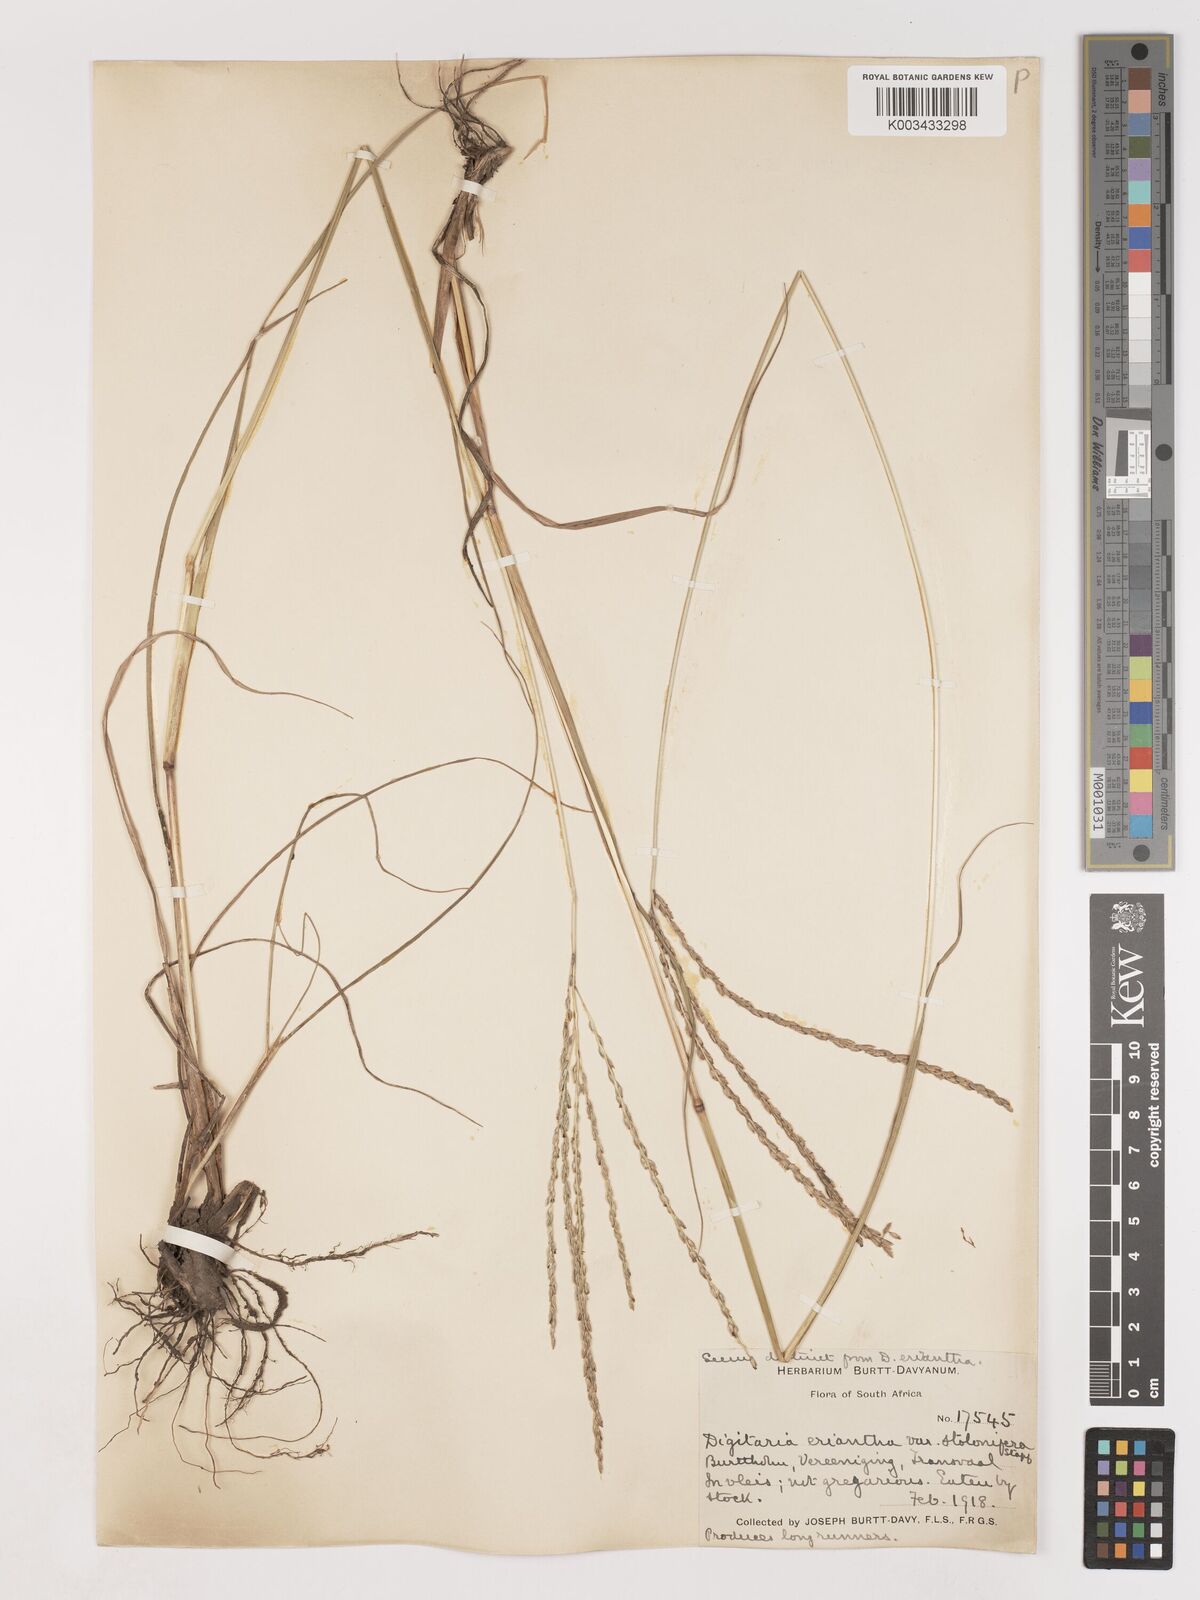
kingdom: Plantae
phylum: Tracheophyta
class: Liliopsida
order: Poales
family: Poaceae
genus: Digitaria
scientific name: Digitaria eriantha
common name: Digitgrass
